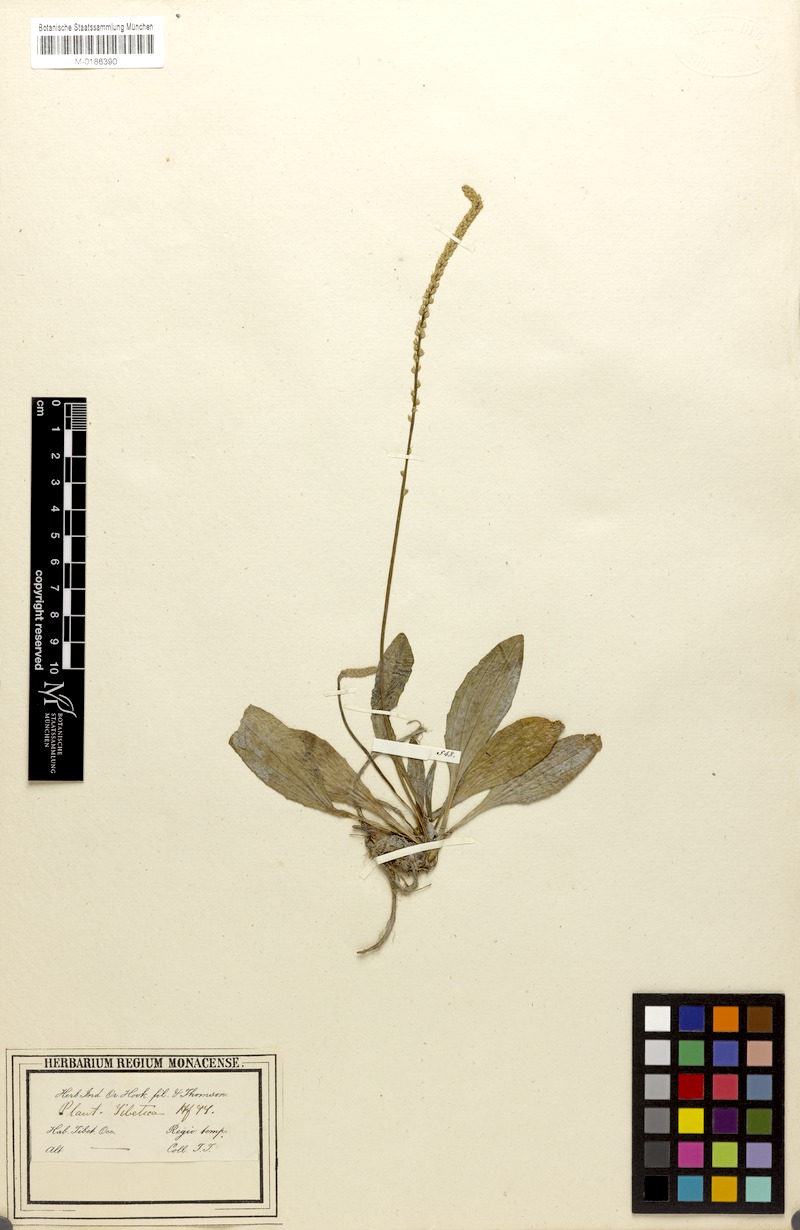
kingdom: Plantae
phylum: Tracheophyta
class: Magnoliopsida
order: Lamiales
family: Plantaginaceae
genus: Plantago
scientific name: Plantago depressa
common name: Depressed plantain
